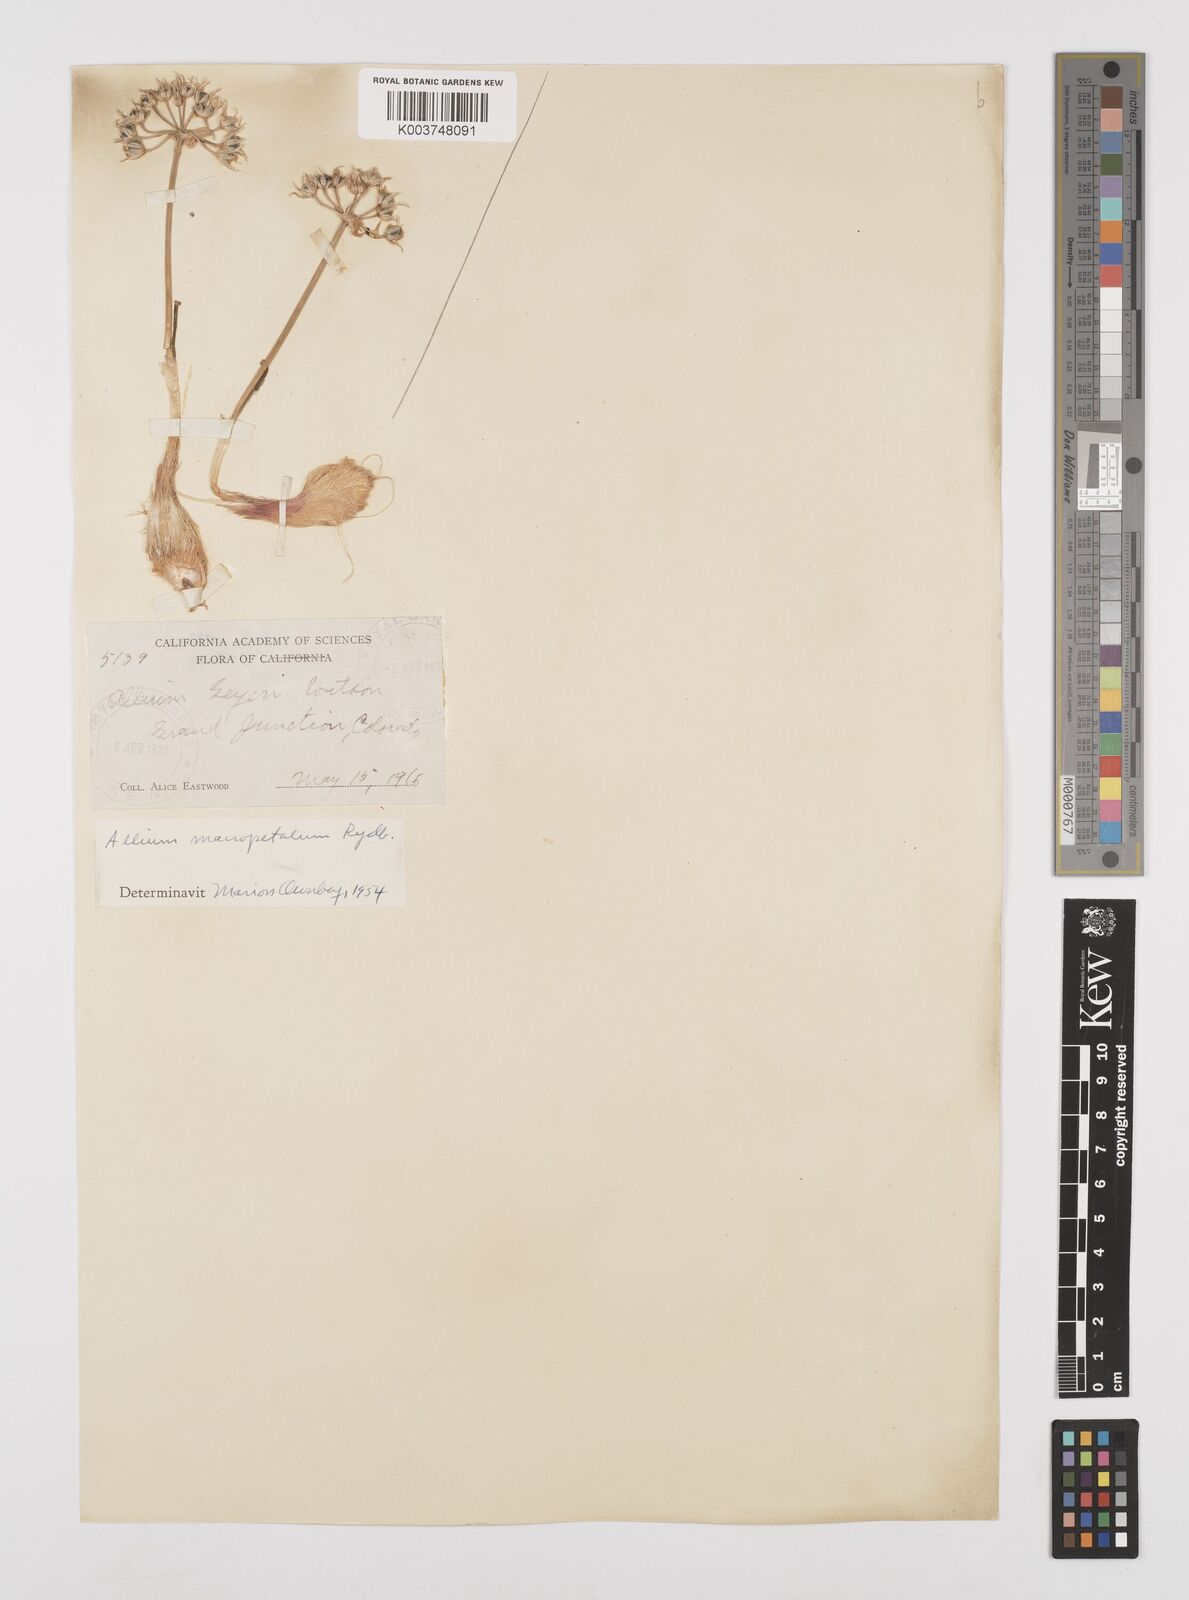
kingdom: Plantae
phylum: Tracheophyta
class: Liliopsida
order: Asparagales
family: Amaryllidaceae
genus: Allium
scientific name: Allium macropetalum
